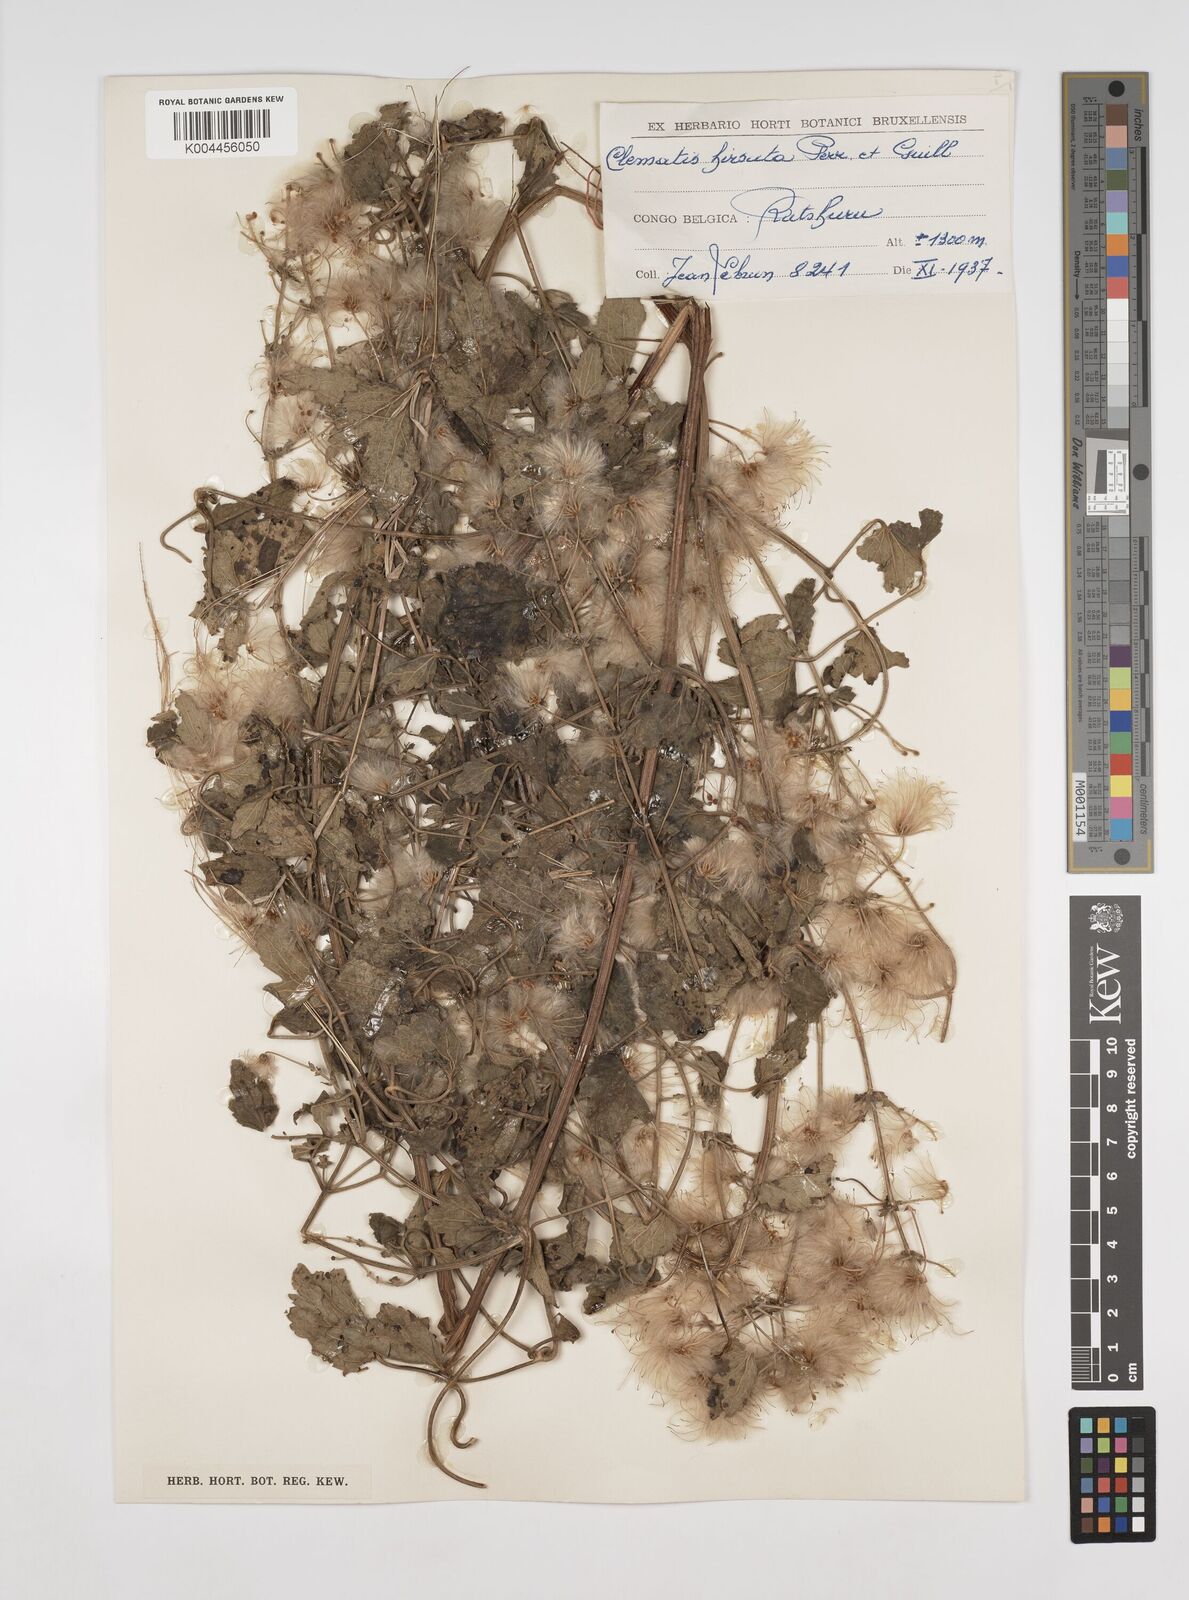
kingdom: Plantae
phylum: Tracheophyta
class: Magnoliopsida
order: Ranunculales
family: Ranunculaceae
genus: Clematis
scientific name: Clematis hirsuta
